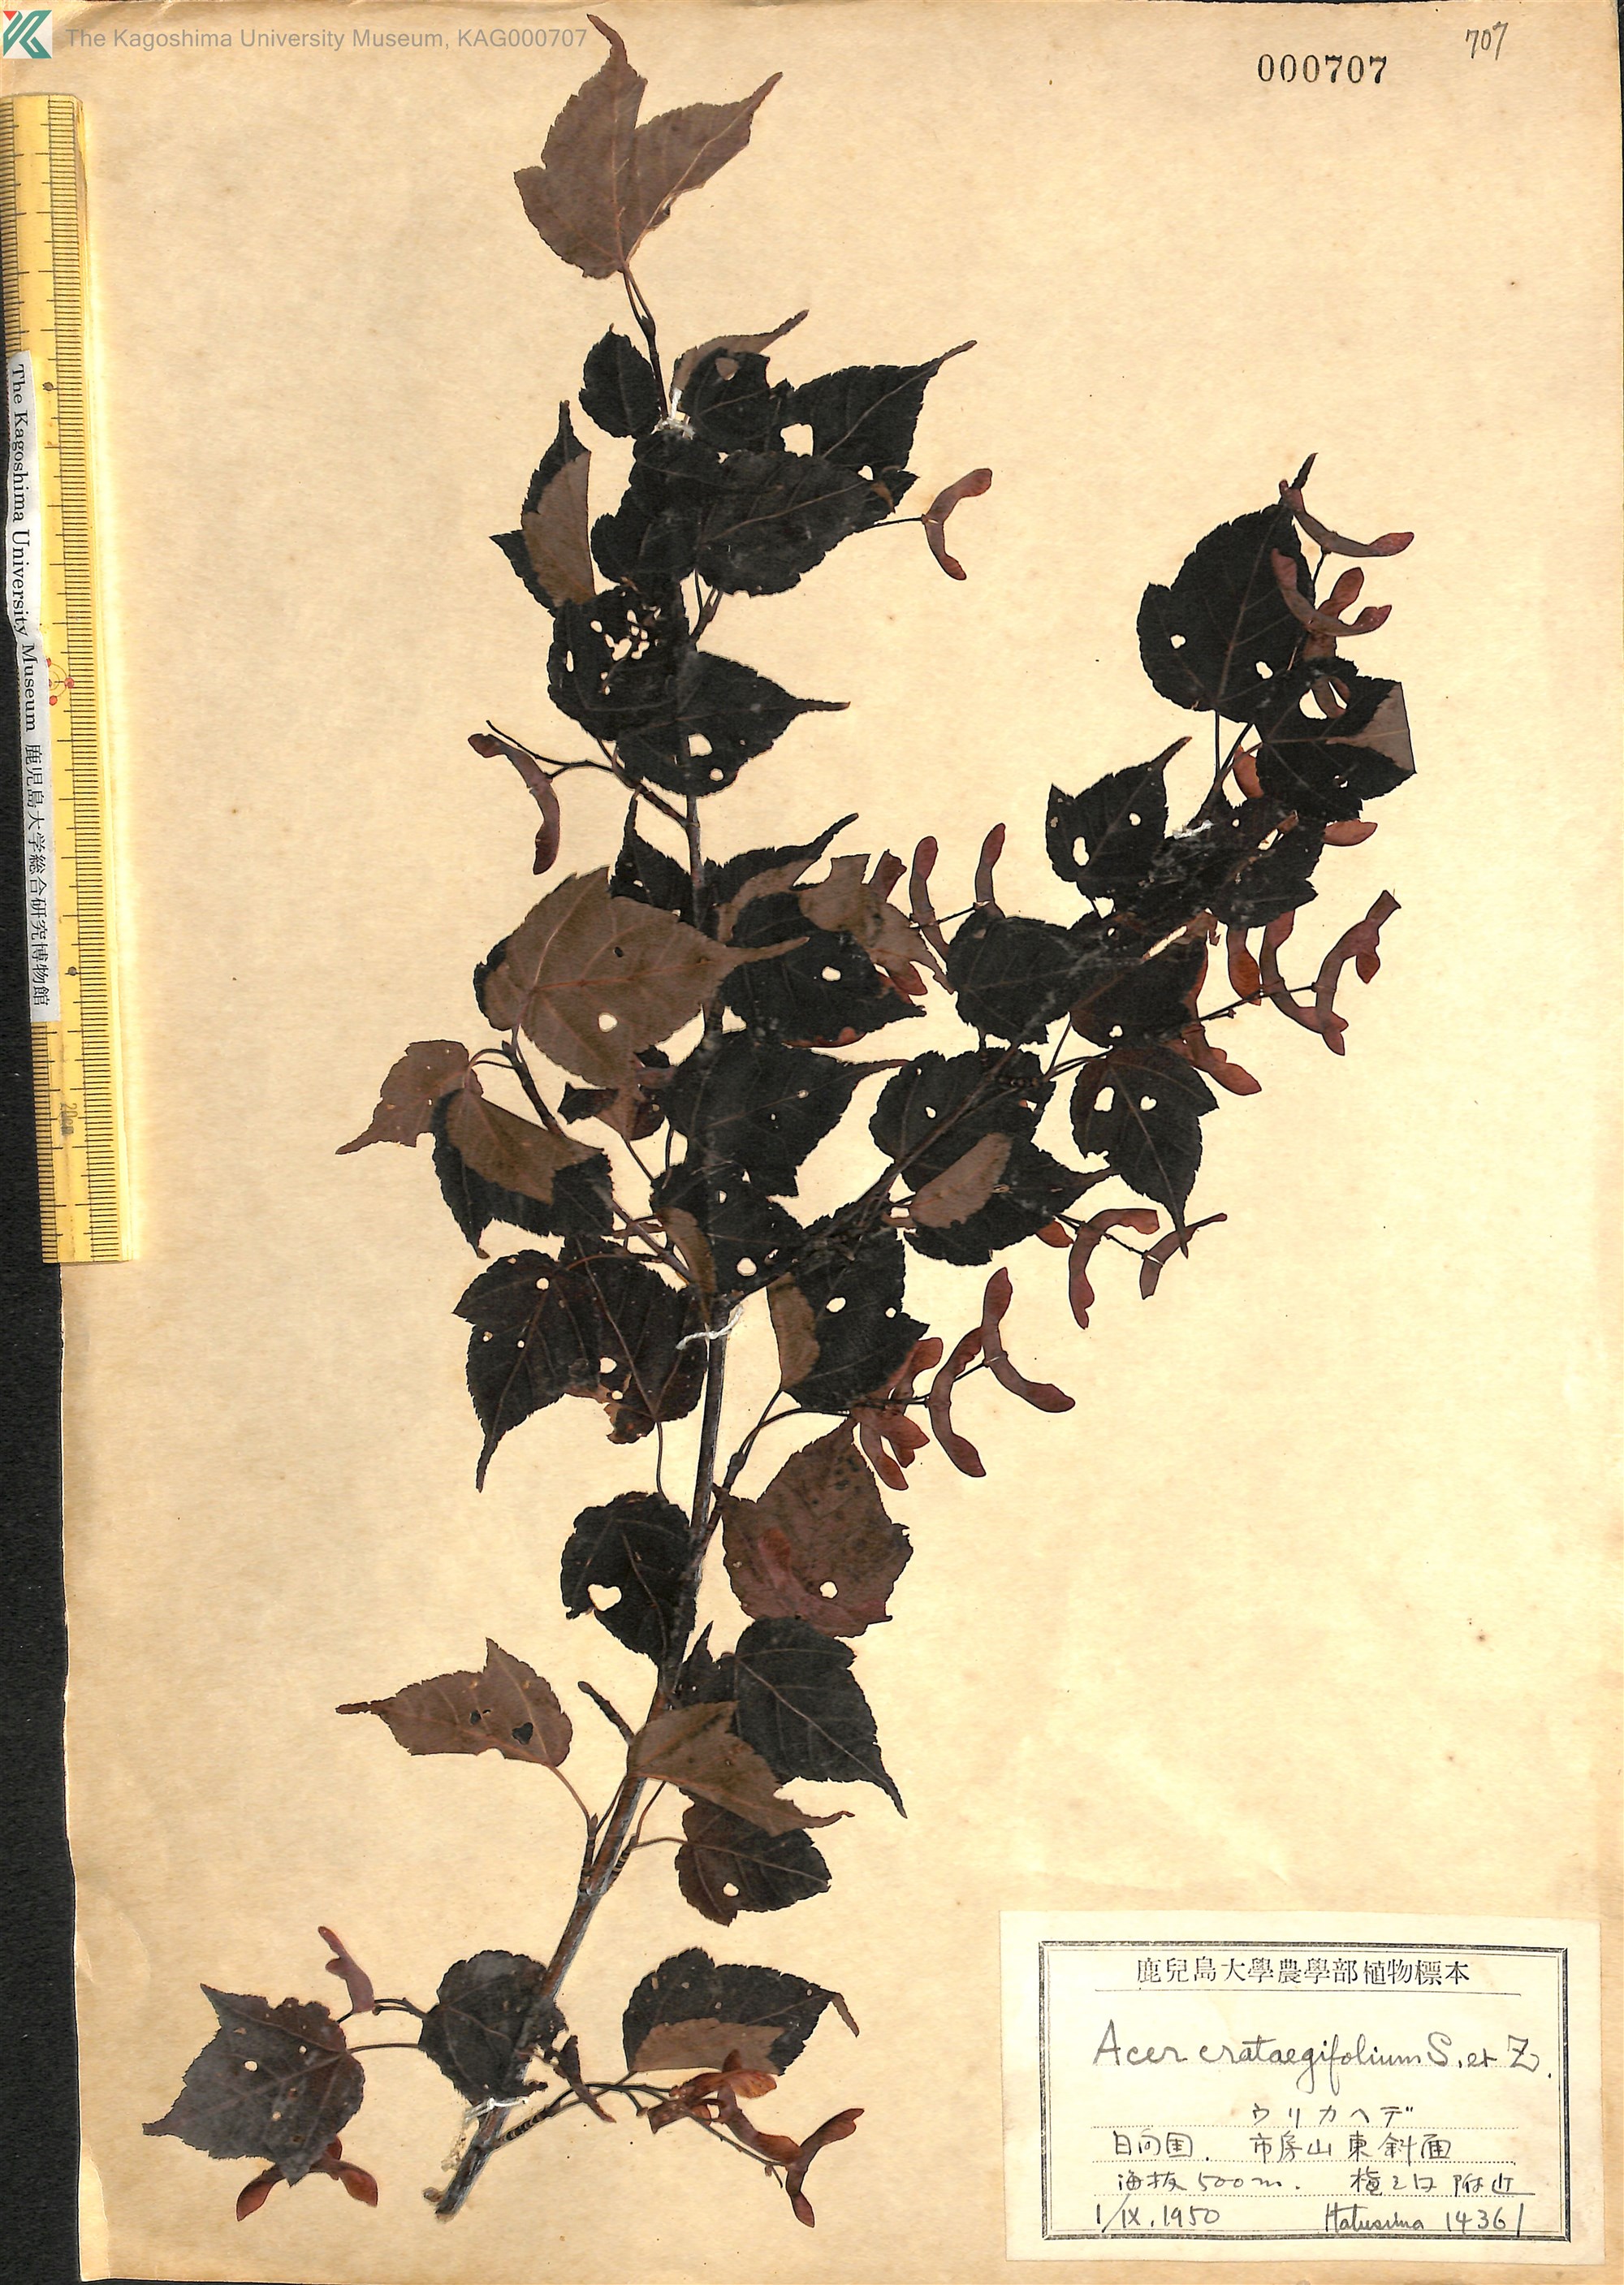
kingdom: Plantae
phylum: Tracheophyta
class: Magnoliopsida
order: Sapindales
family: Sapindaceae
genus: Acer
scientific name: Acer crataegifolium
